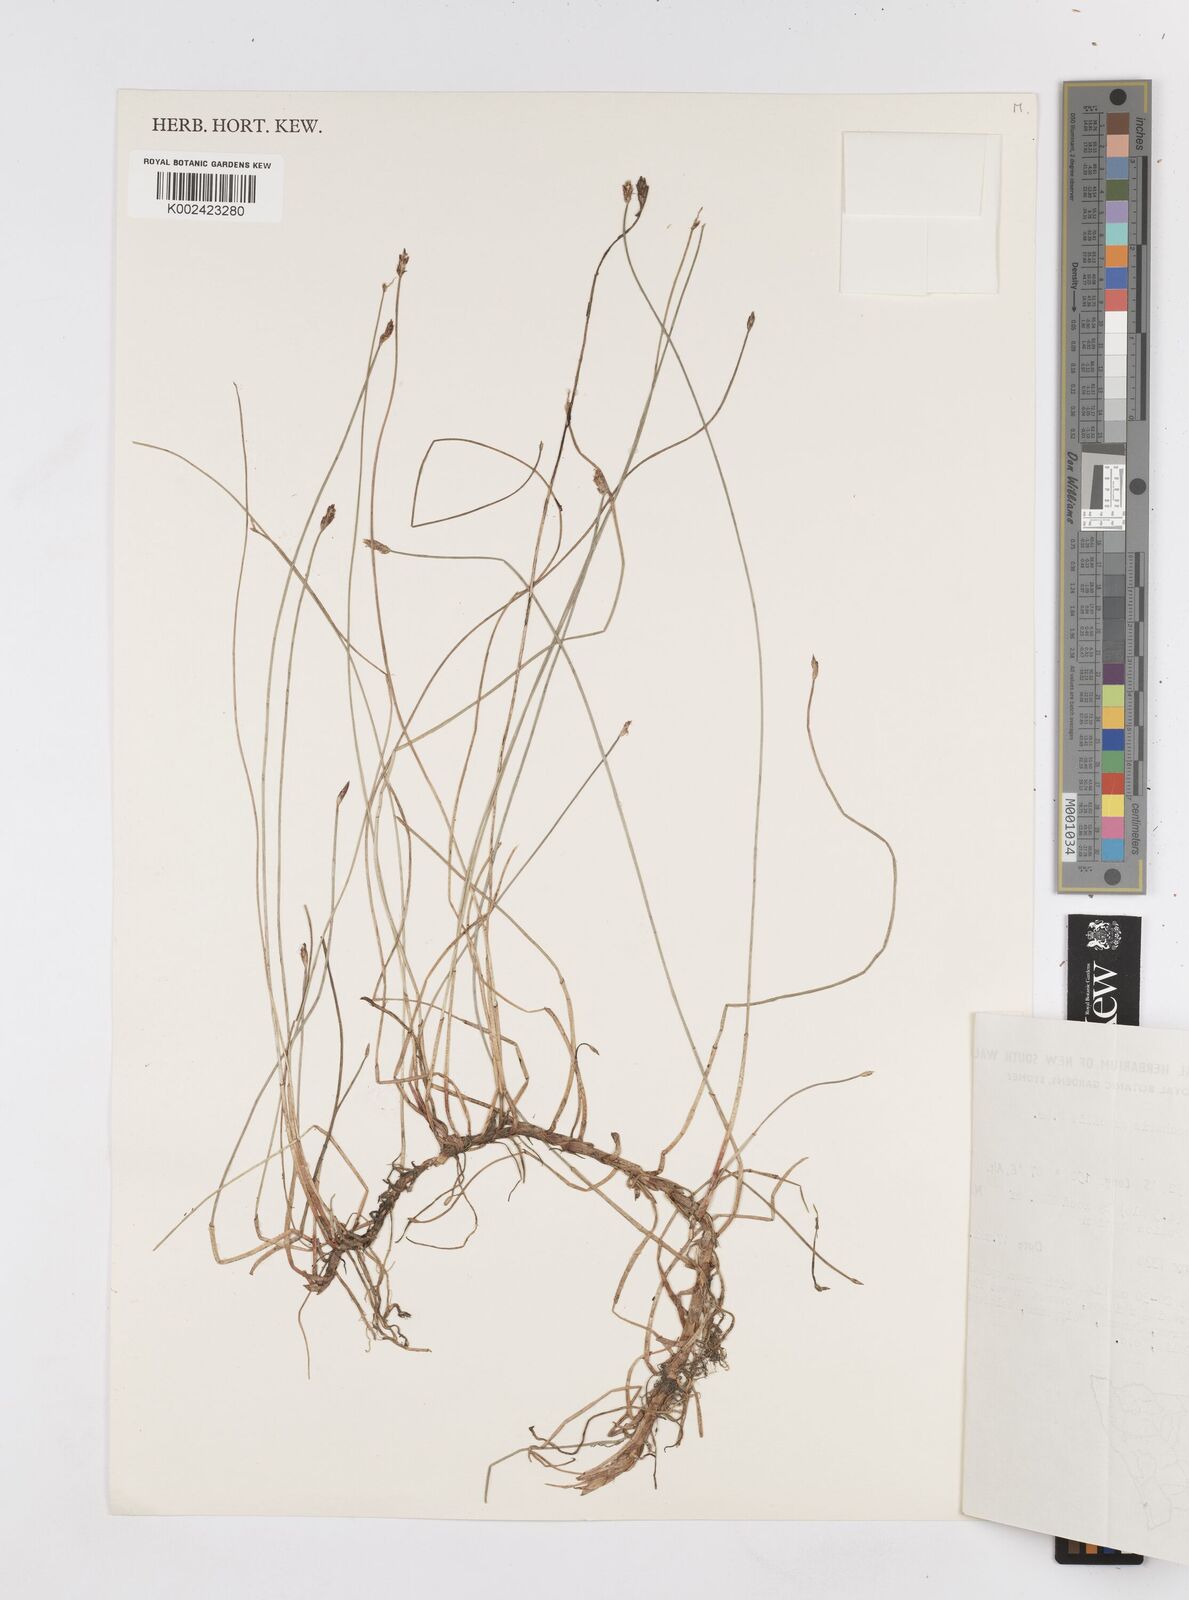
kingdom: Plantae
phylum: Tracheophyta
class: Liliopsida
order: Poales
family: Cyperaceae
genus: Eleocharis
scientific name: Eleocharis multicaulis
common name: Many-stalked spike-rush
